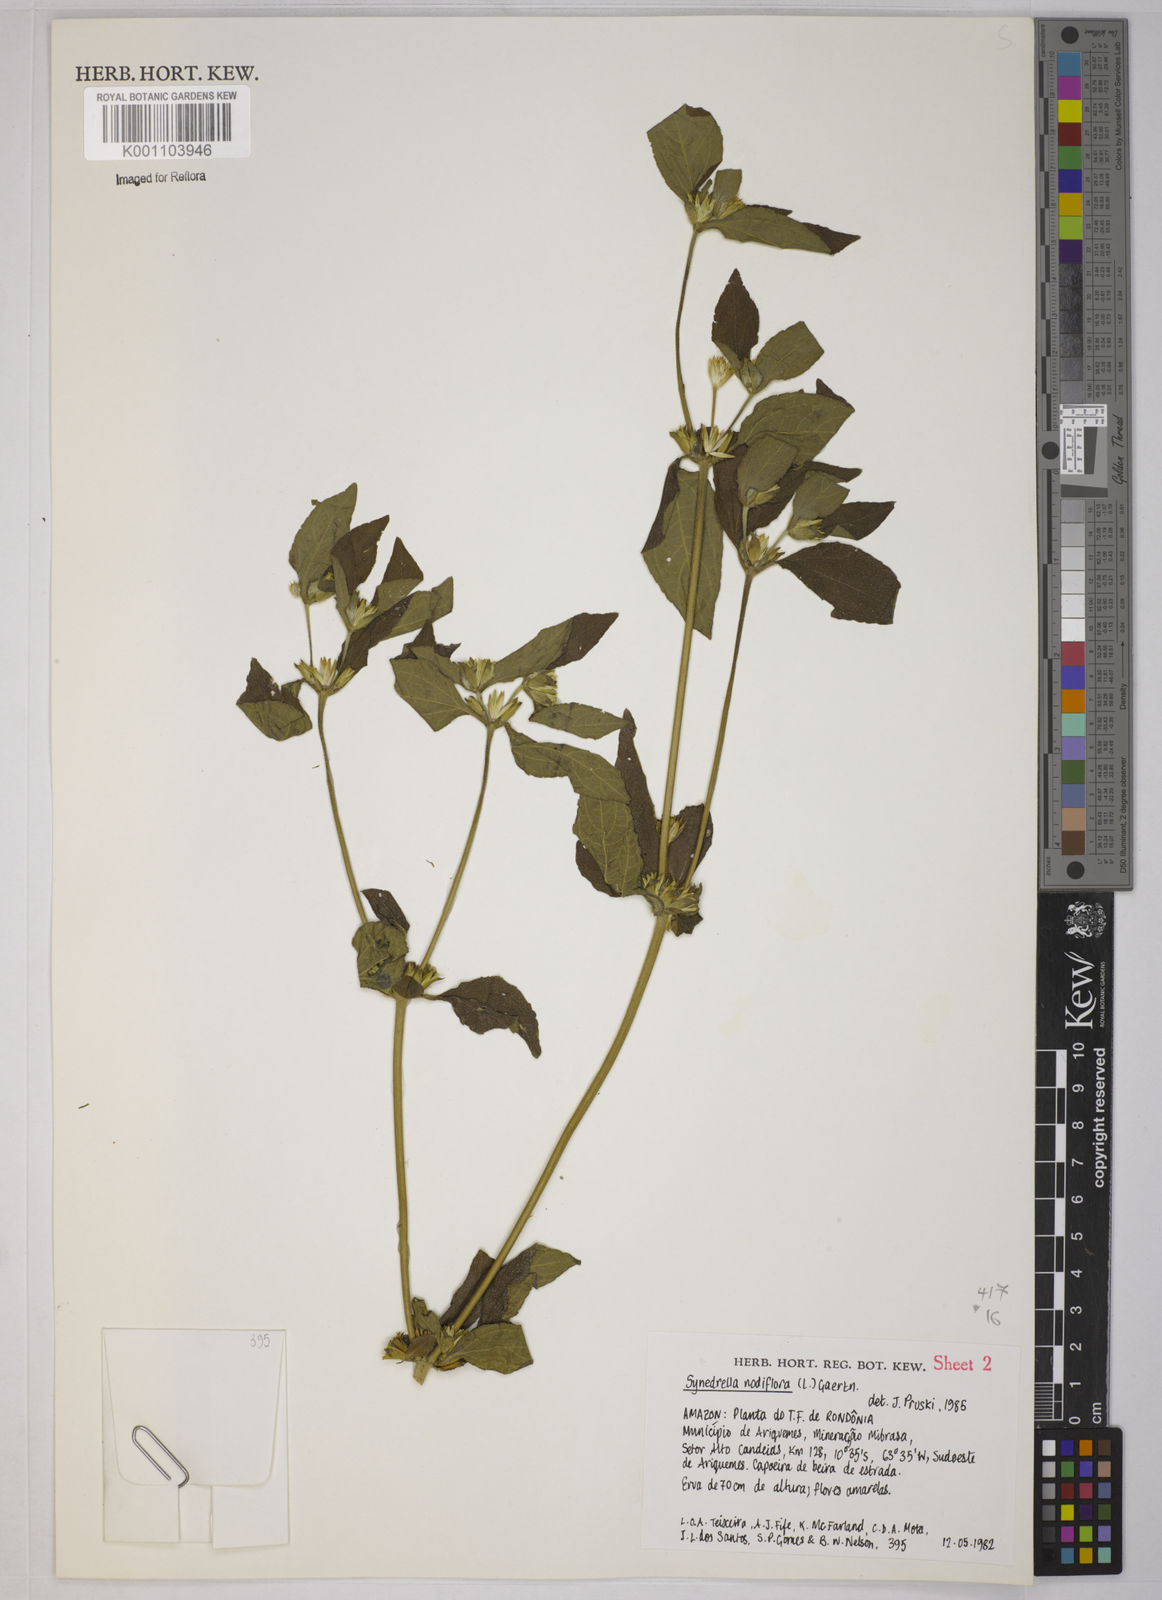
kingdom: Plantae
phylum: Tracheophyta
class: Magnoliopsida
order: Asterales
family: Asteraceae
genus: Synedrella
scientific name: Synedrella nodiflora
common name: Nodeweed
